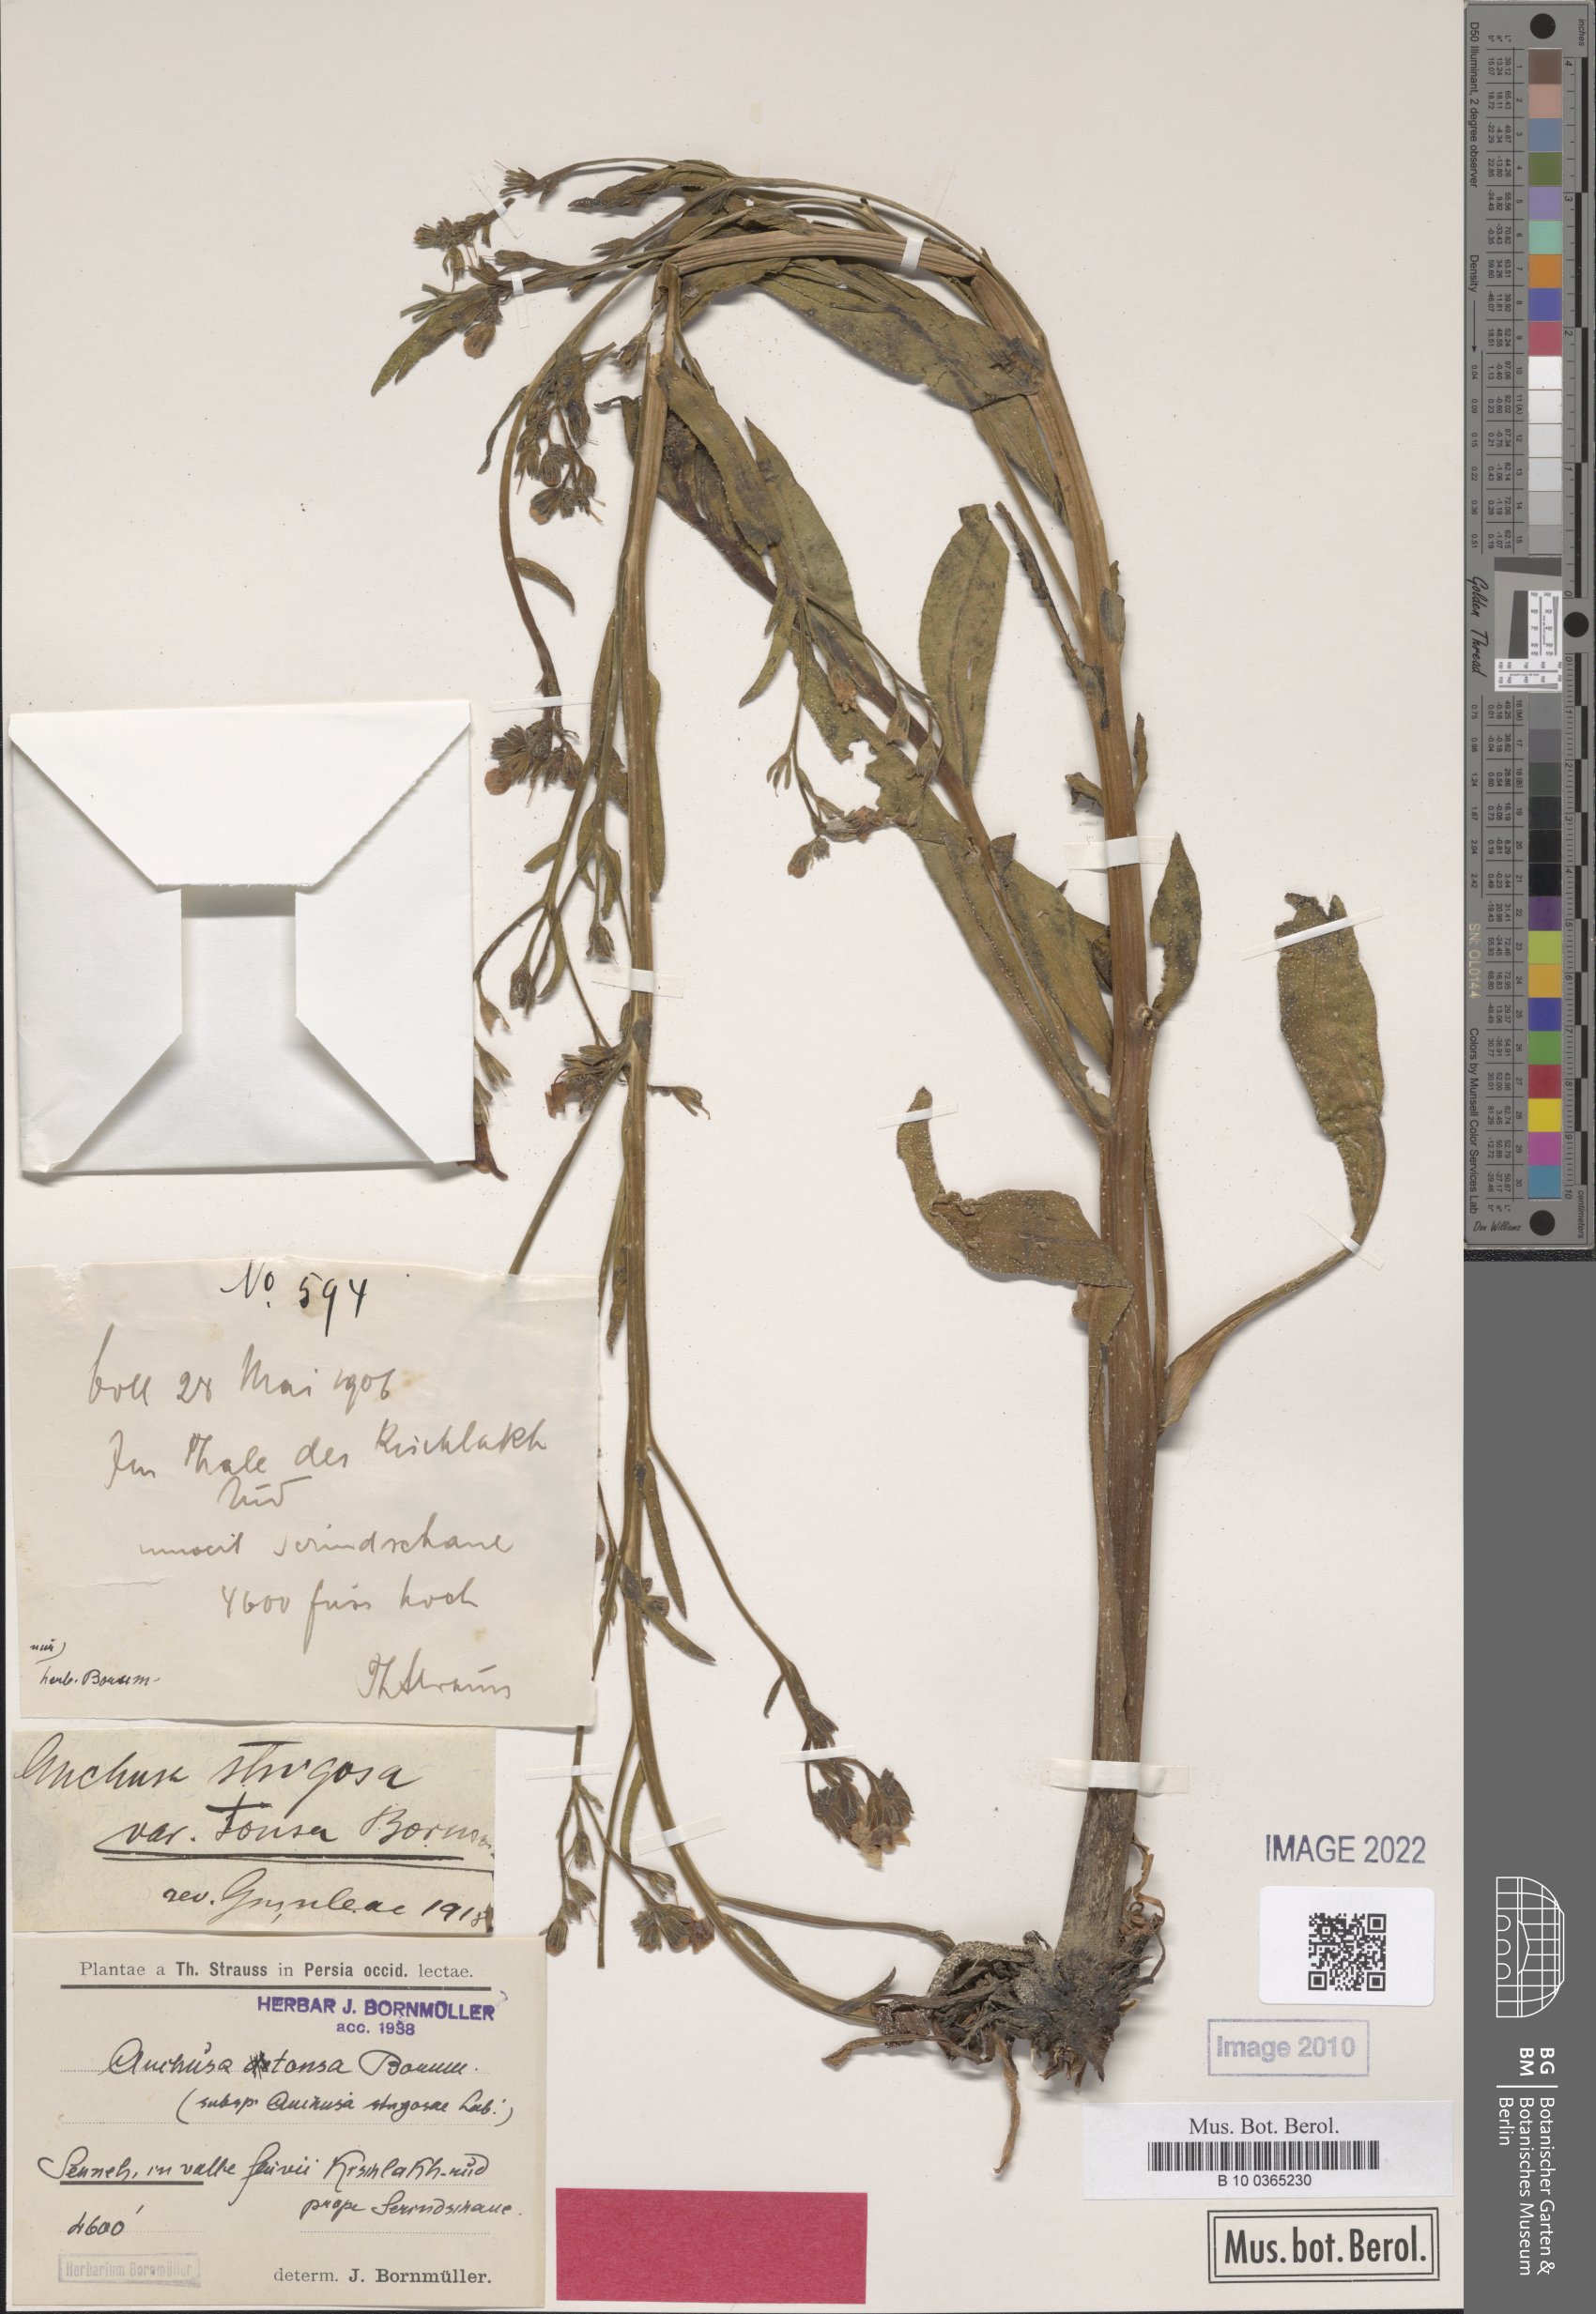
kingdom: Plantae
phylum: Tracheophyta
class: Magnoliopsida
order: Boraginales
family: Boraginaceae
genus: Anchusa
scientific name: Anchusa strigosa
